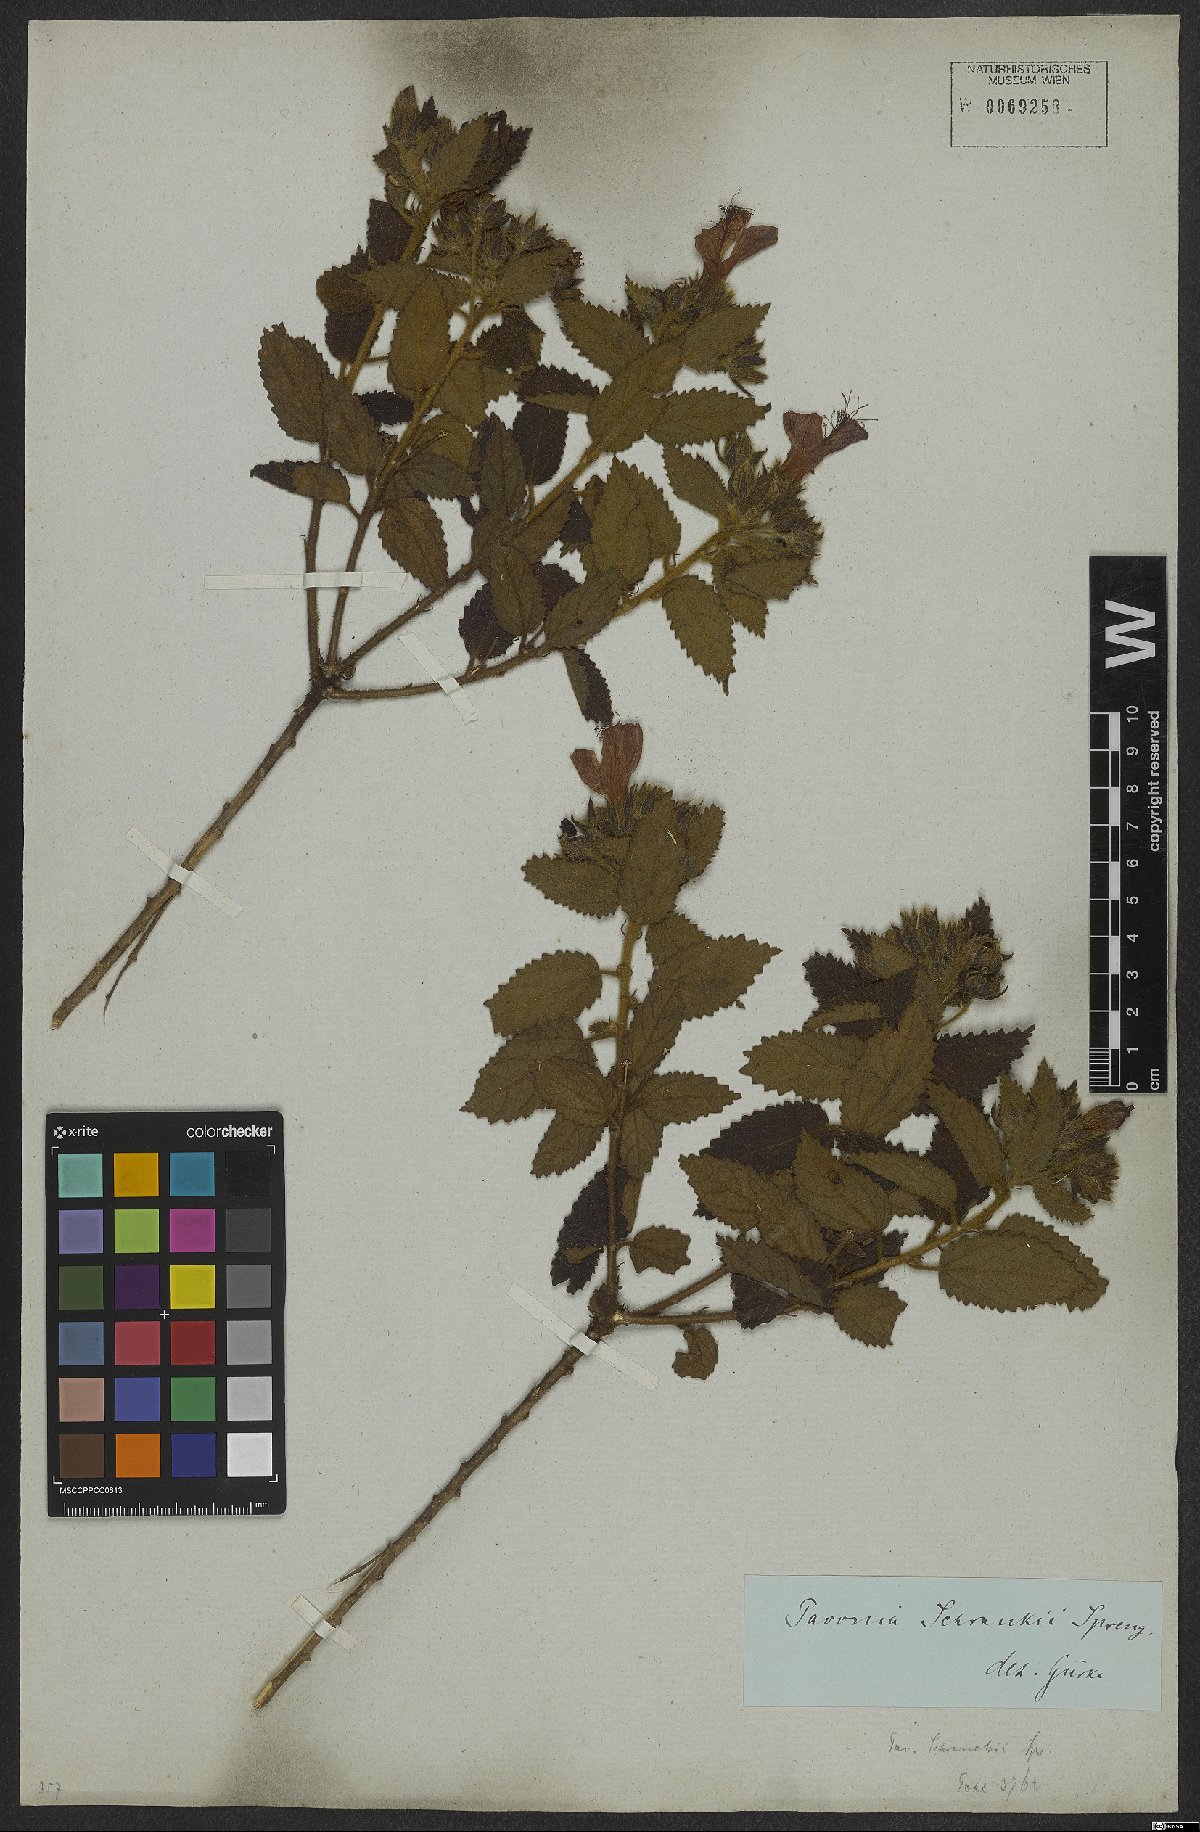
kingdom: Plantae
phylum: Tracheophyta
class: Magnoliopsida
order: Malvales
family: Malvaceae
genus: Pavonia
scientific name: Pavonia schrankii
